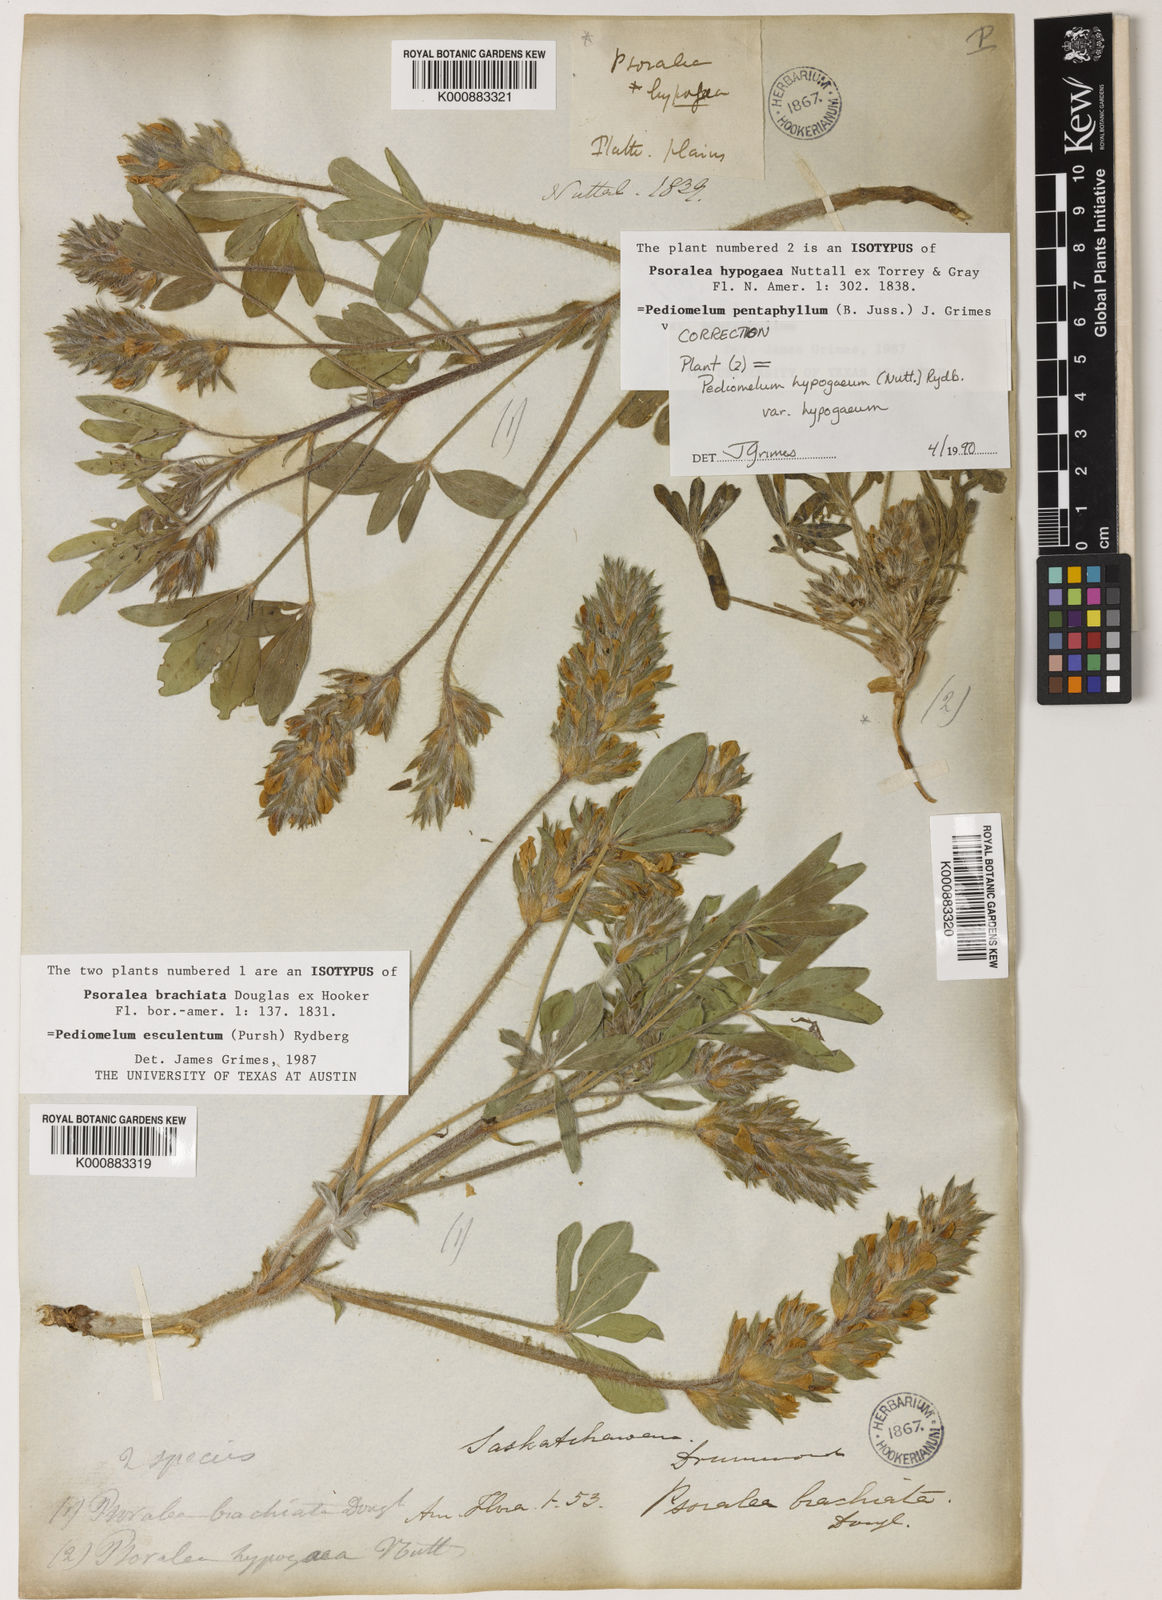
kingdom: Plantae
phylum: Tracheophyta
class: Magnoliopsida
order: Fabales
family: Fabaceae
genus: Pediomelum
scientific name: Pediomelum esculentum
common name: Indian-turnip
